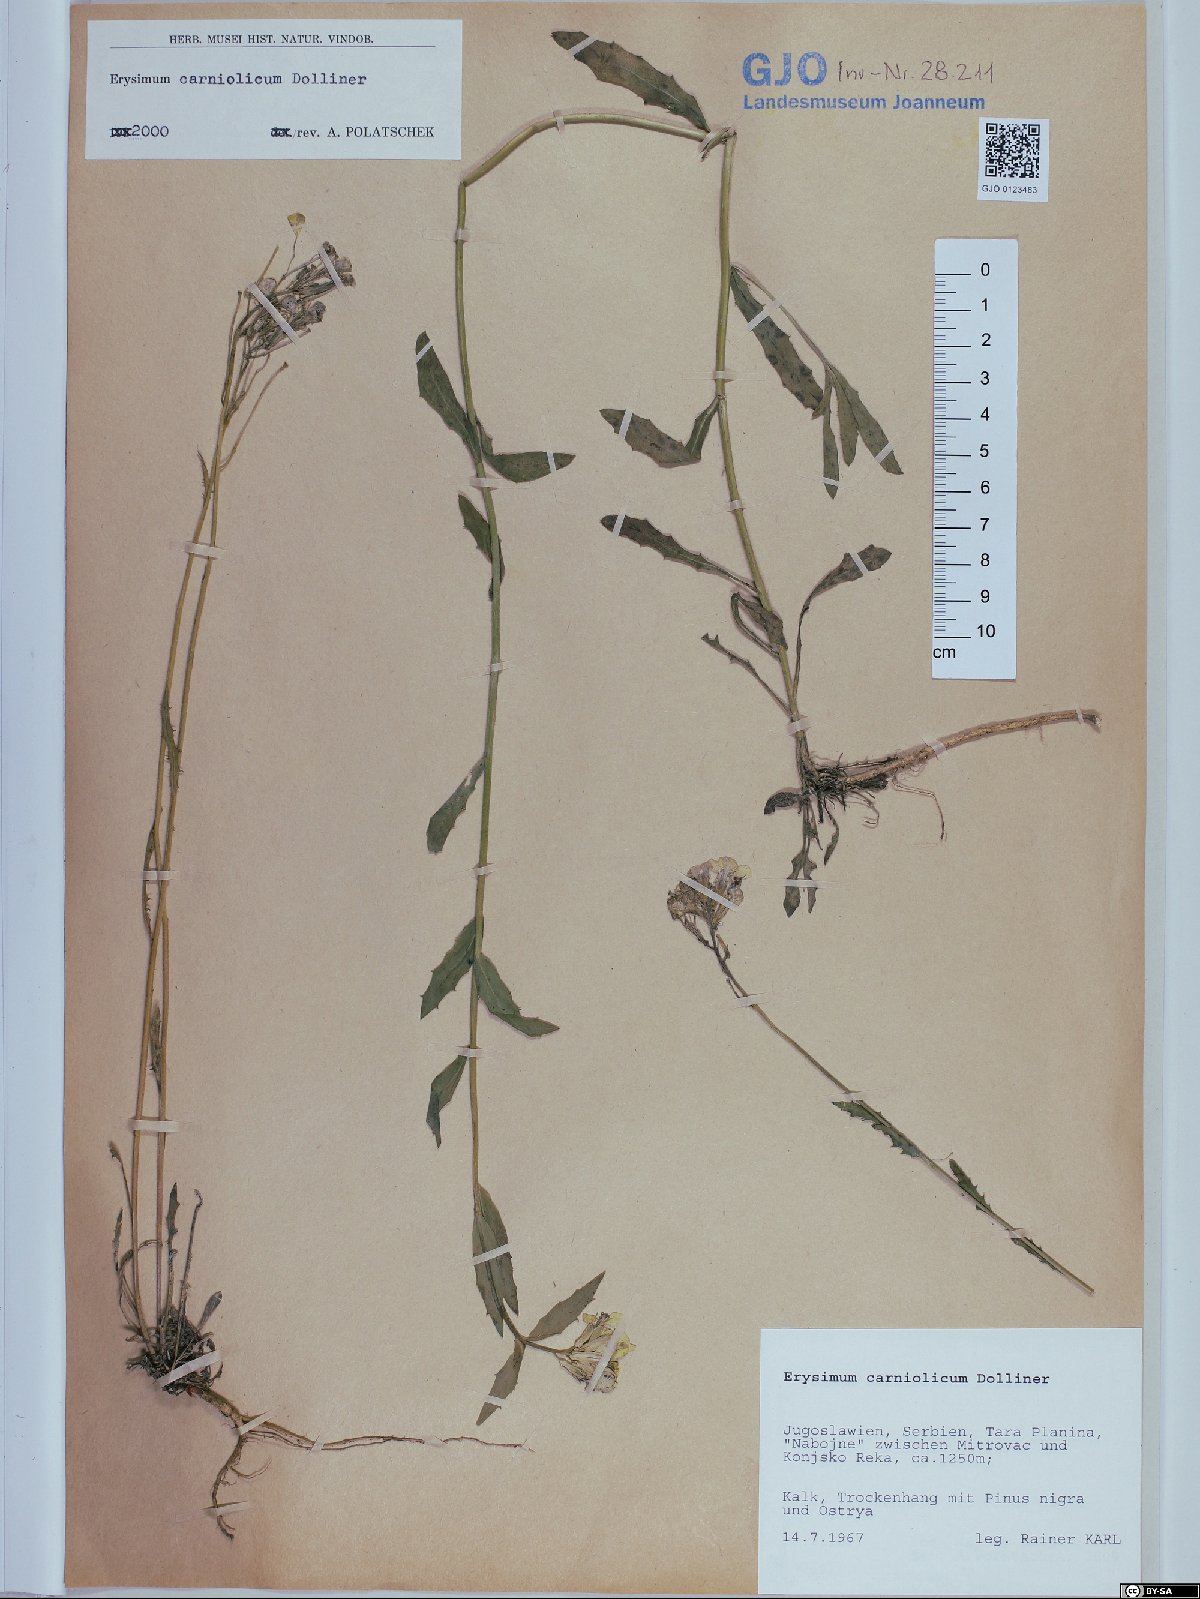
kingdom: Plantae
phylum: Tracheophyta
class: Magnoliopsida
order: Brassicales
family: Brassicaceae
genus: Erysimum
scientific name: Erysimum carniolicum
